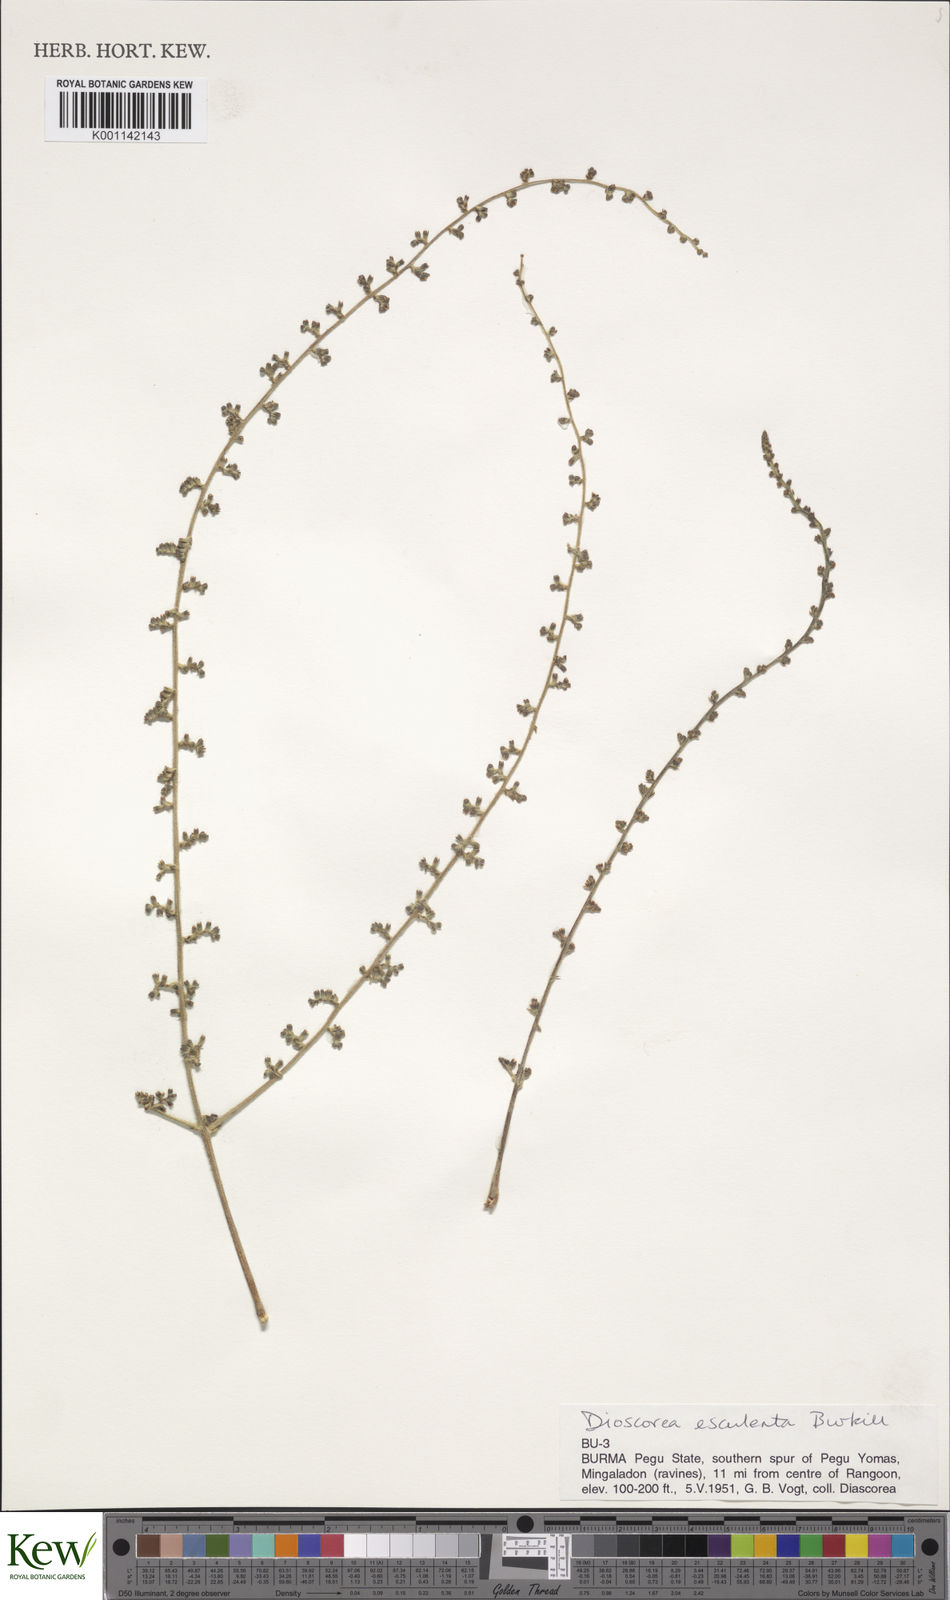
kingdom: Plantae
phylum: Tracheophyta
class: Liliopsida
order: Dioscoreales
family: Dioscoreaceae
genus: Dioscorea
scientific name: Dioscorea esculenta
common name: Chinese yam
